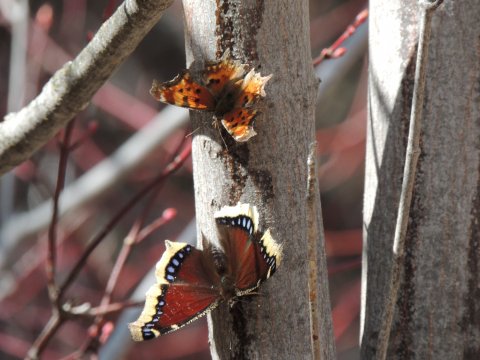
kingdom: Animalia
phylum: Arthropoda
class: Insecta
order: Lepidoptera
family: Nymphalidae
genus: Nymphalis
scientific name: Nymphalis antiopa
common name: Mourning Cloak
